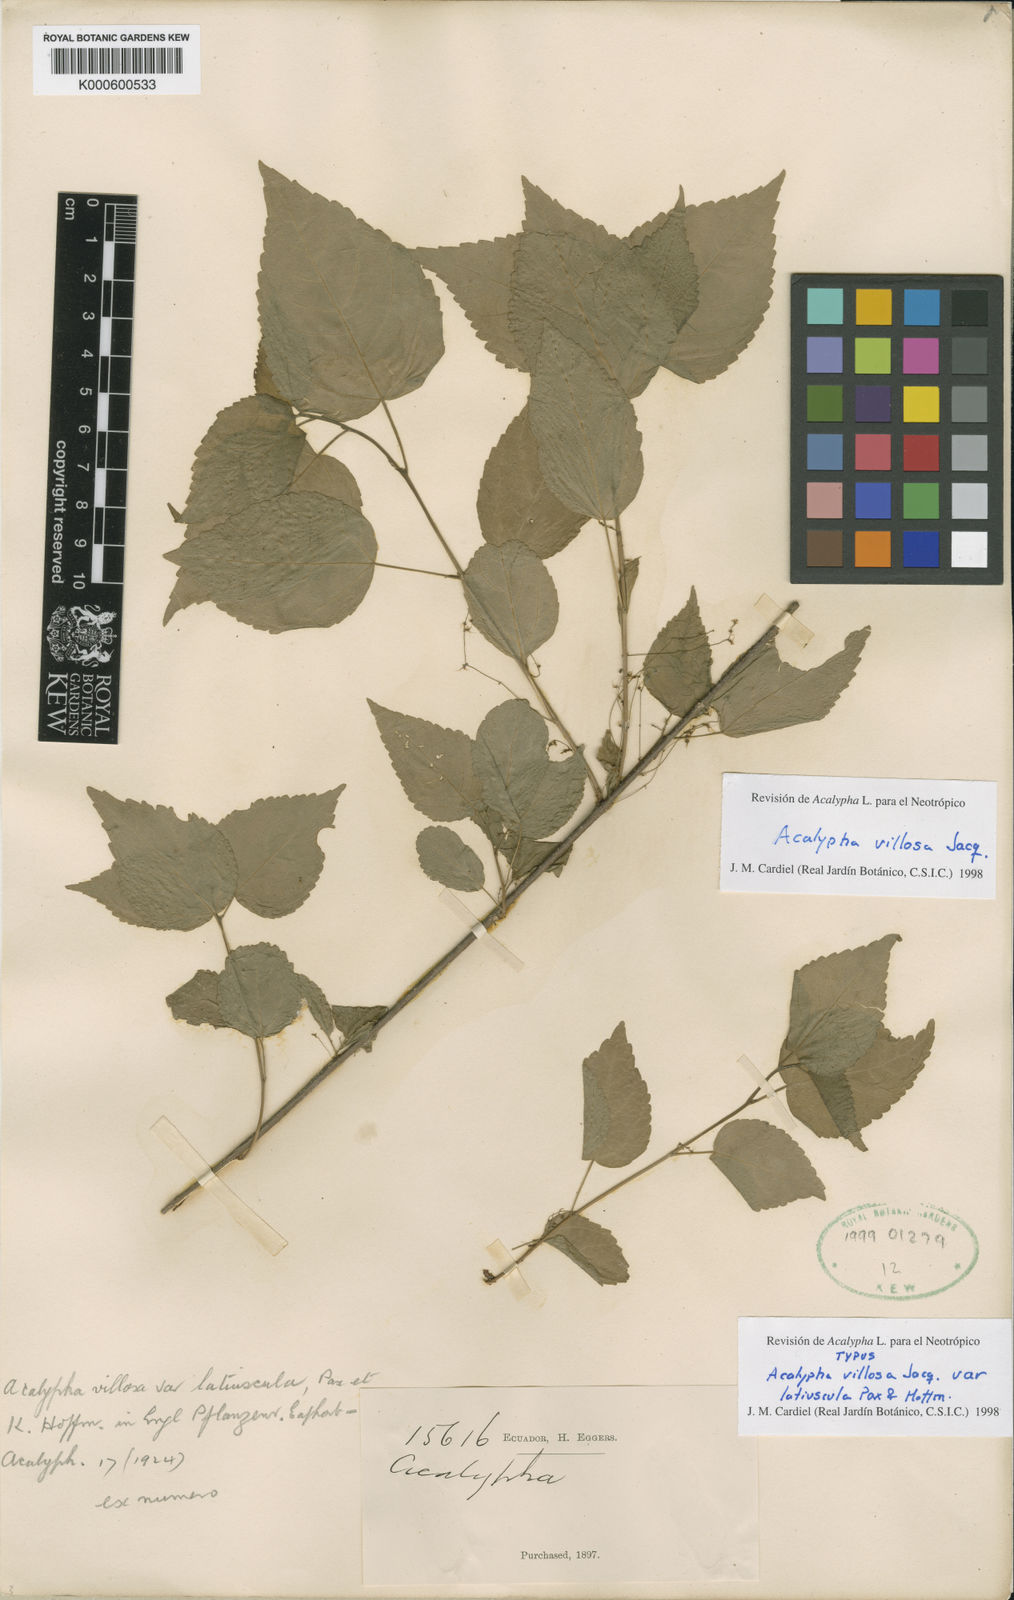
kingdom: Plantae
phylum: Tracheophyta
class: Magnoliopsida
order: Malpighiales
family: Euphorbiaceae
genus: Acalypha
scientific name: Acalypha villosa
